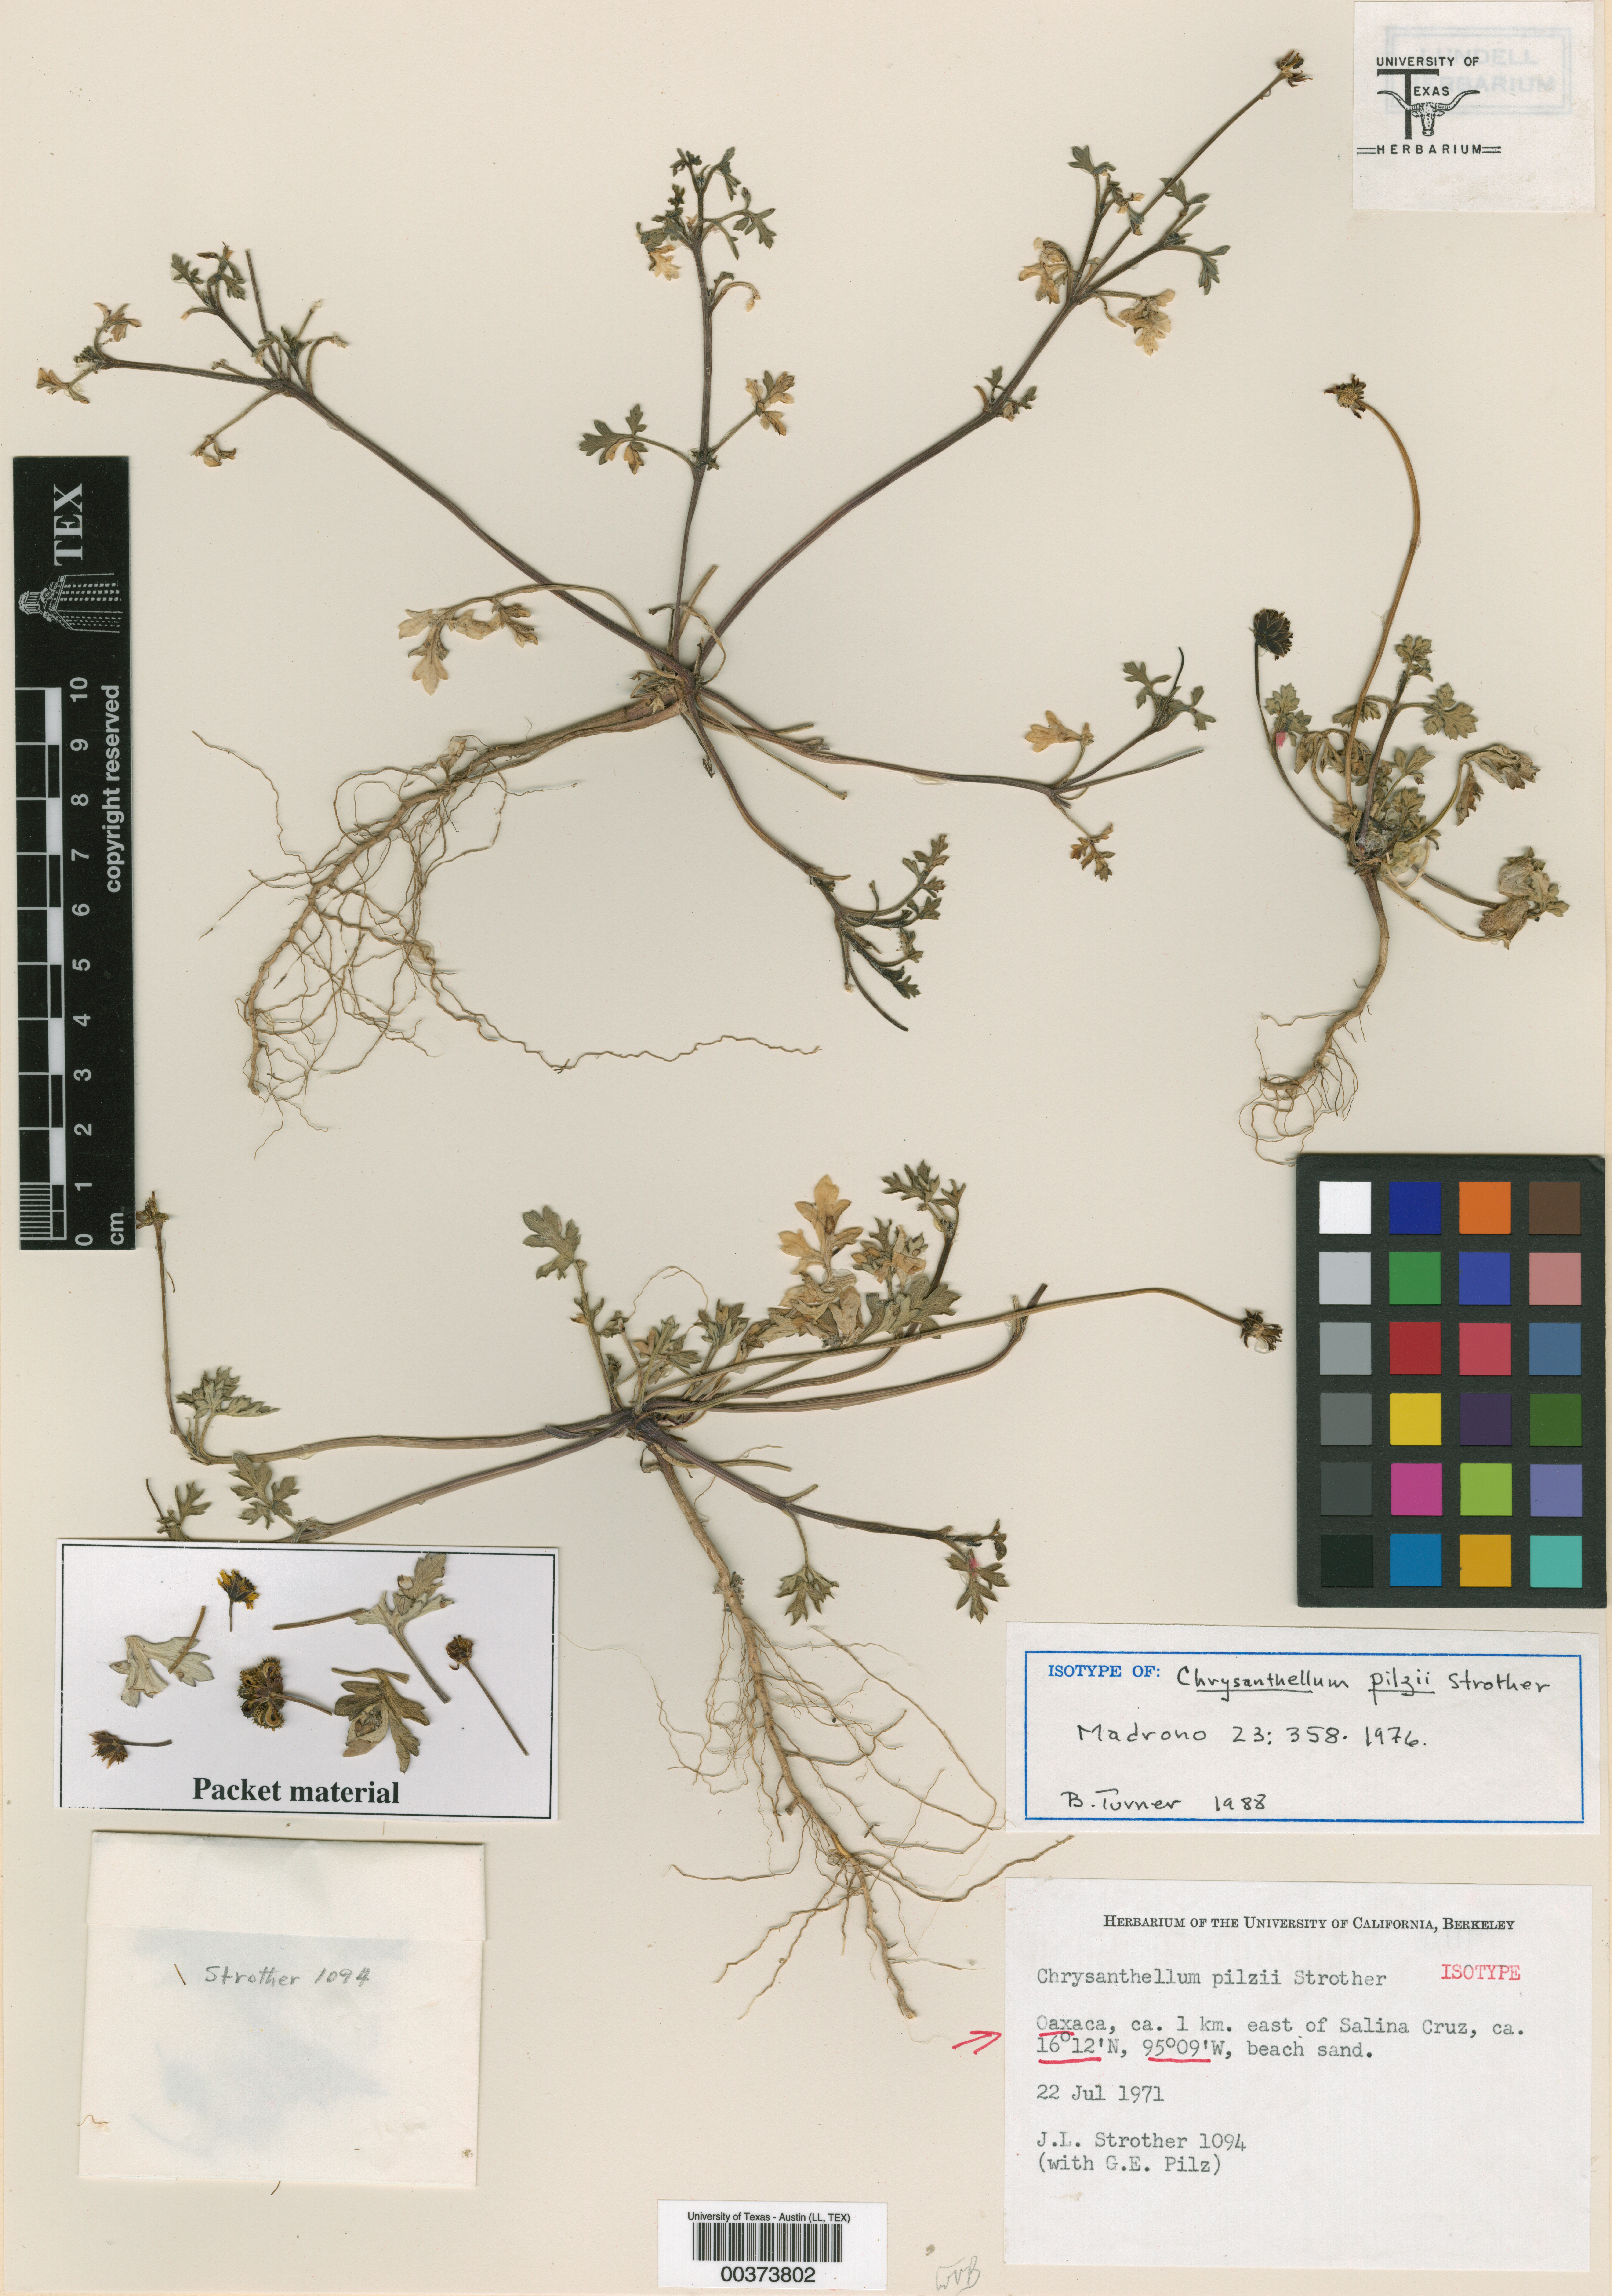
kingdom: Plantae
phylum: Tracheophyta
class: Magnoliopsida
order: Asterales
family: Asteraceae
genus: Chrysanthellum
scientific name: Chrysanthellum pilzii
